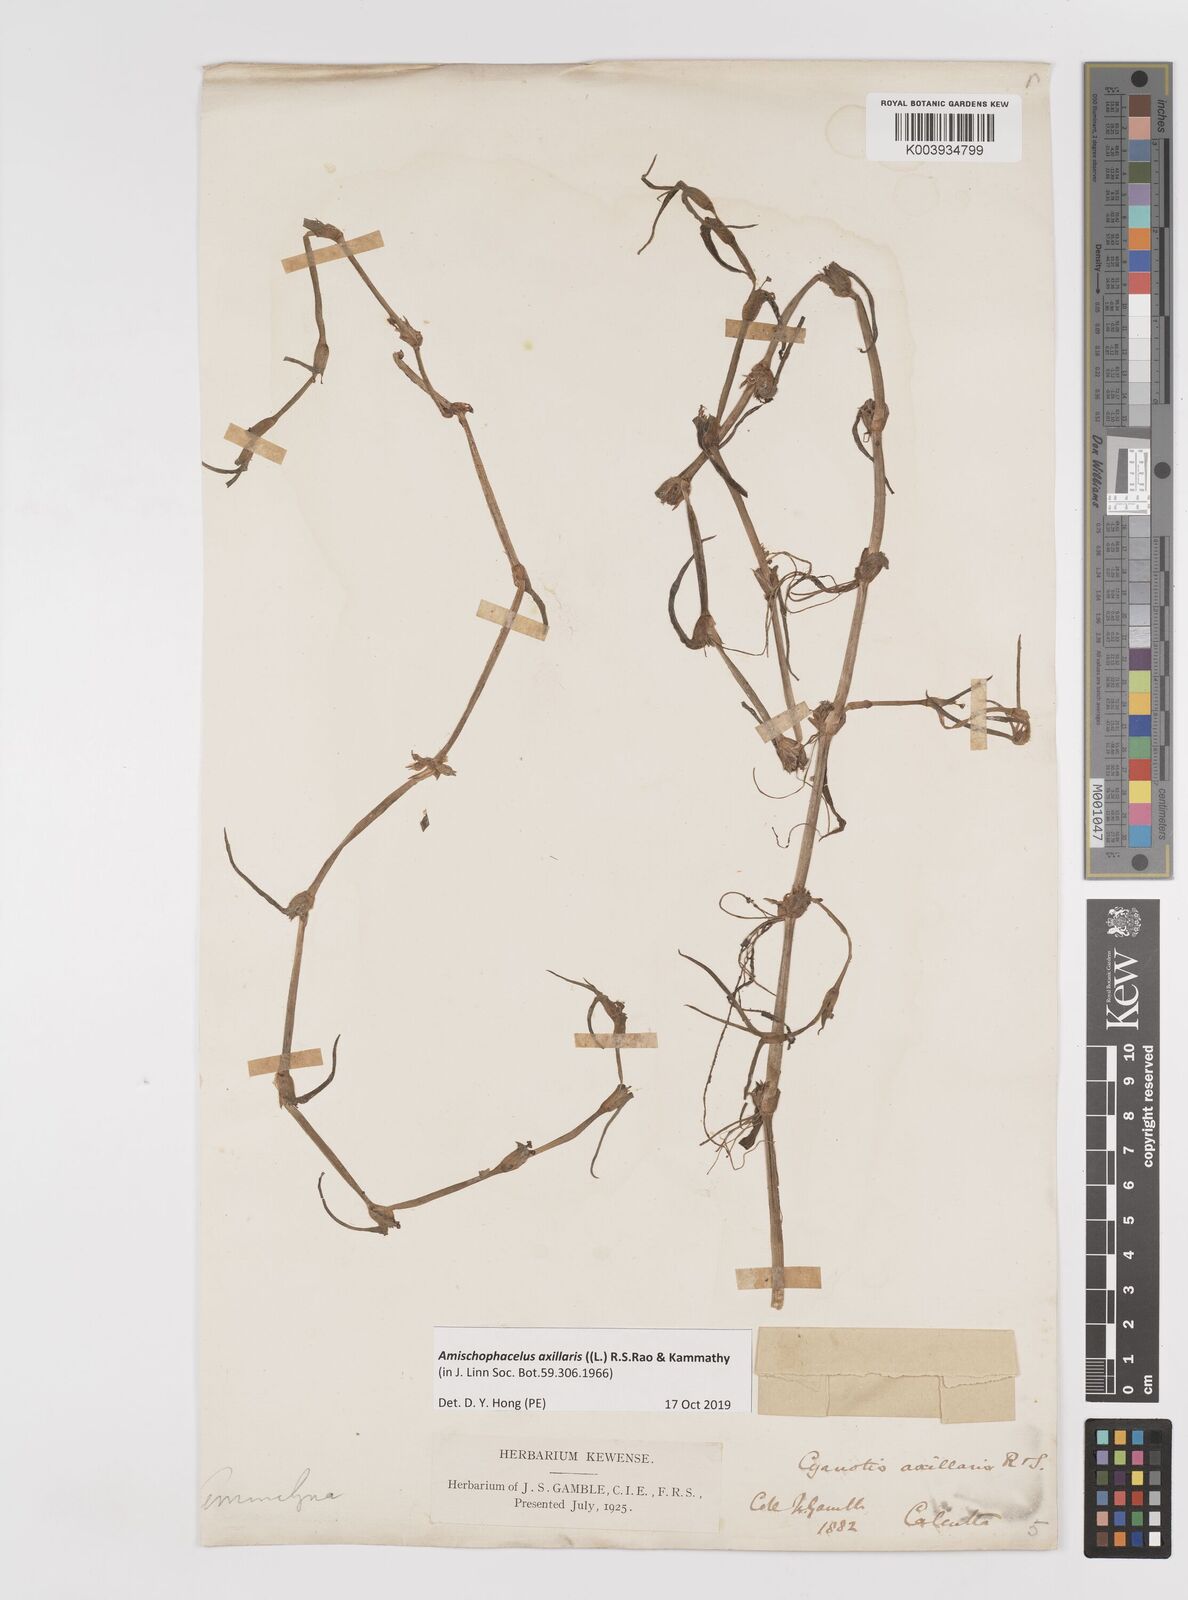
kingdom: Plantae
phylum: Tracheophyta
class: Liliopsida
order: Commelinales
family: Commelinaceae
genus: Cyanotis
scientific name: Cyanotis axillaris
